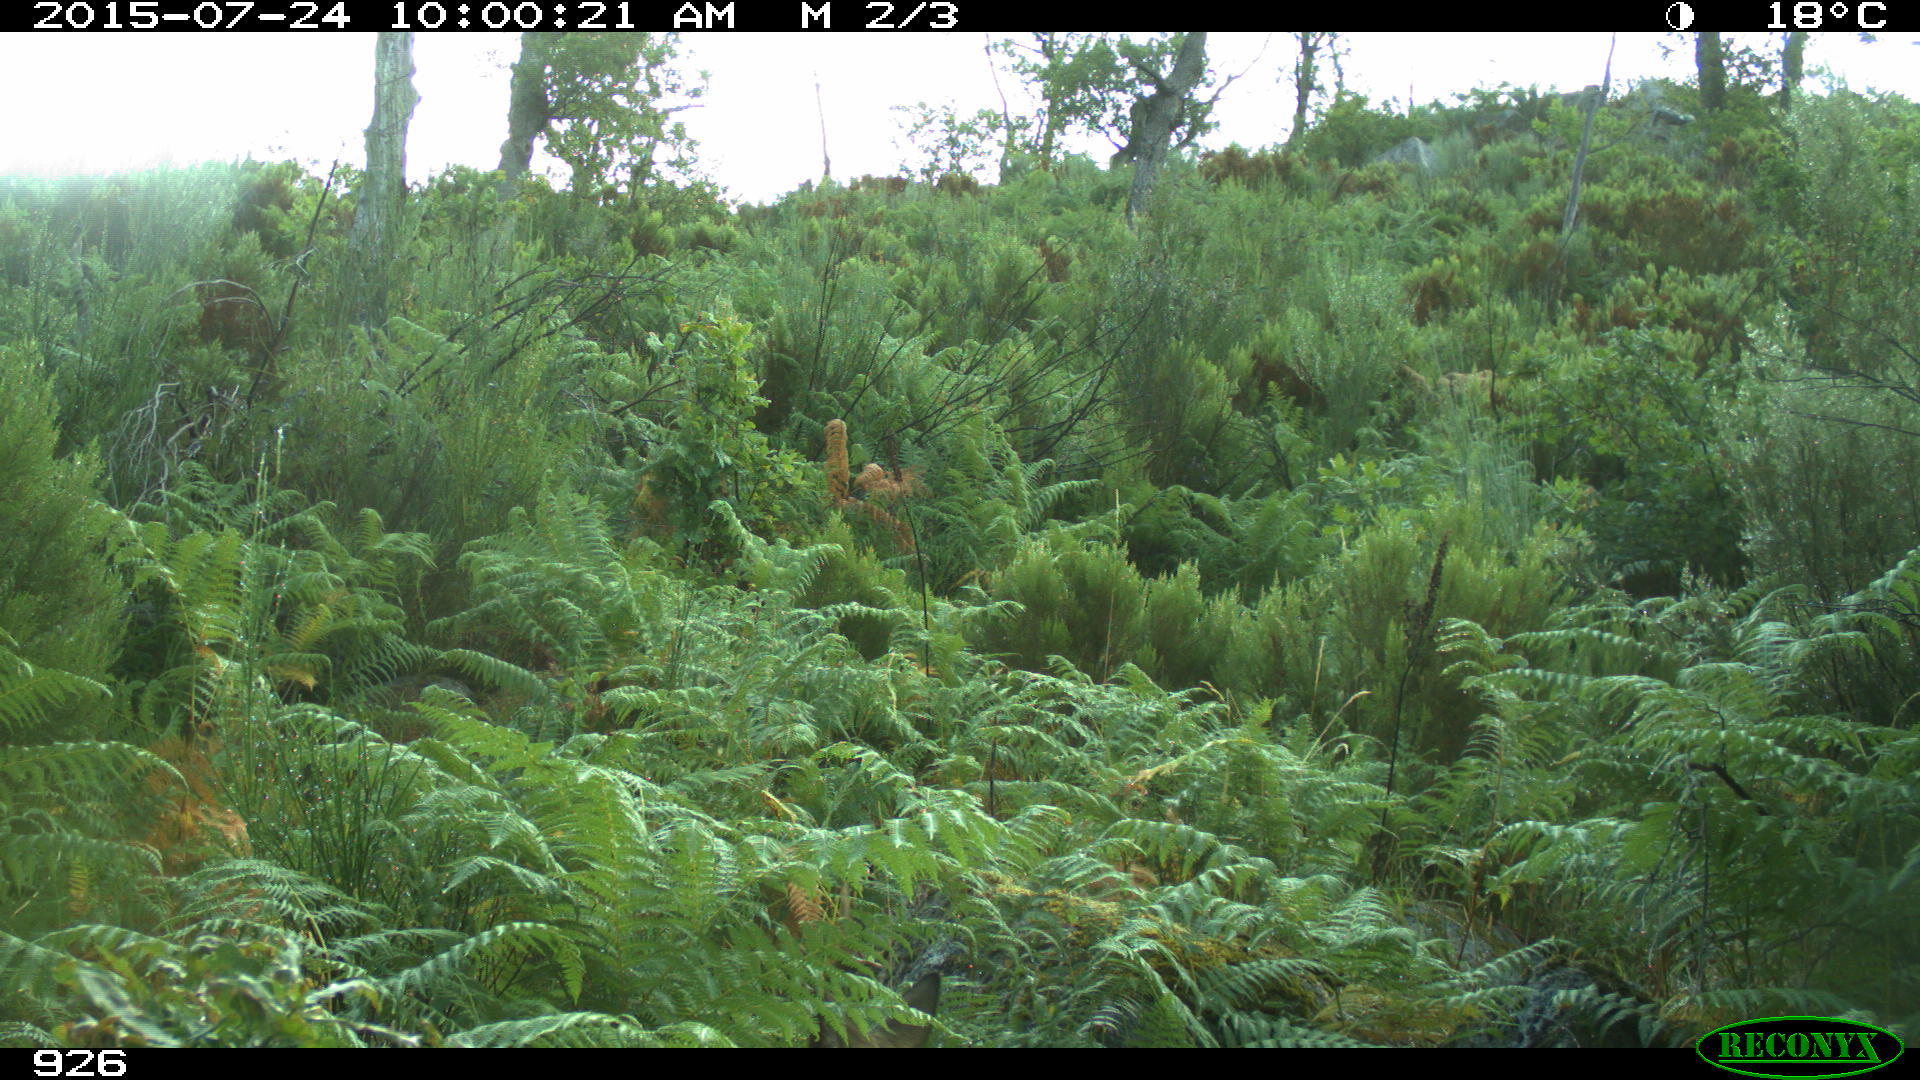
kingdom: Animalia
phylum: Chordata
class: Mammalia
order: Artiodactyla
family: Cervidae
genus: Capreolus
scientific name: Capreolus capreolus
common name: Western roe deer
